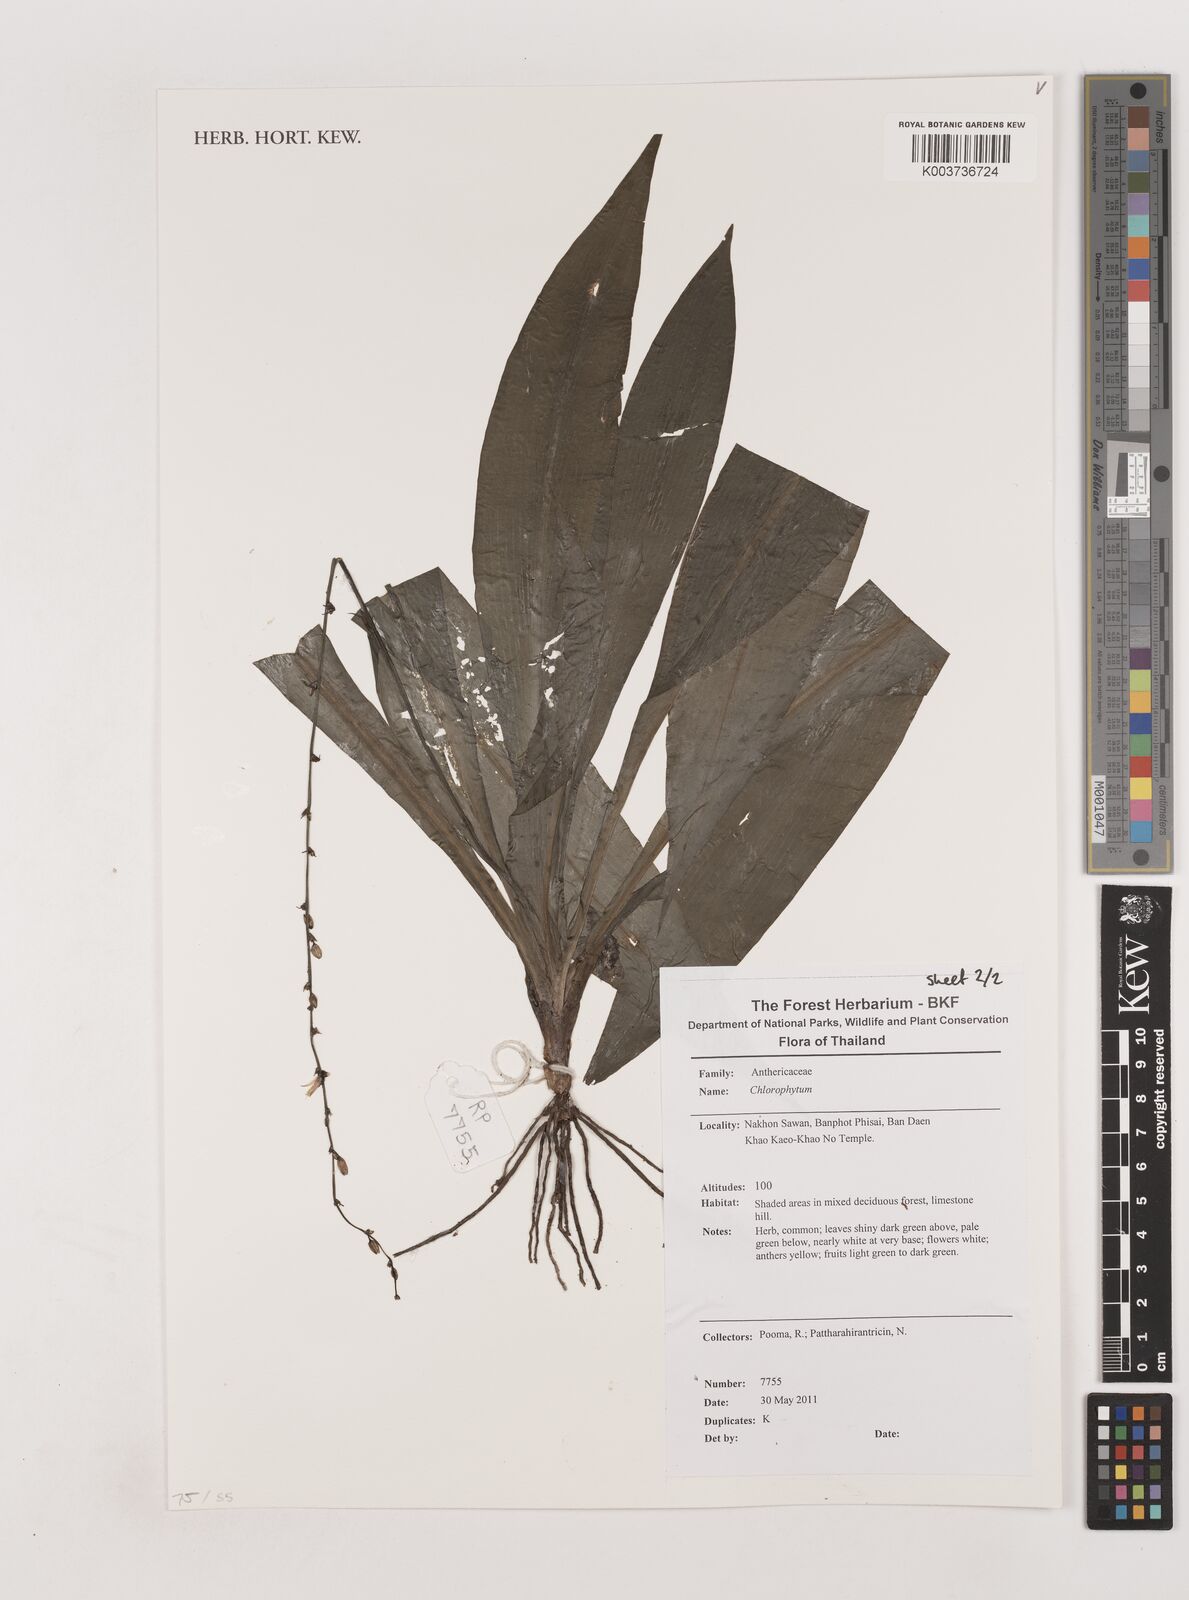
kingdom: Plantae
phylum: Tracheophyta
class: Liliopsida
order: Asparagales
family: Asparagaceae
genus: Chlorophytum
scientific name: Chlorophytum
